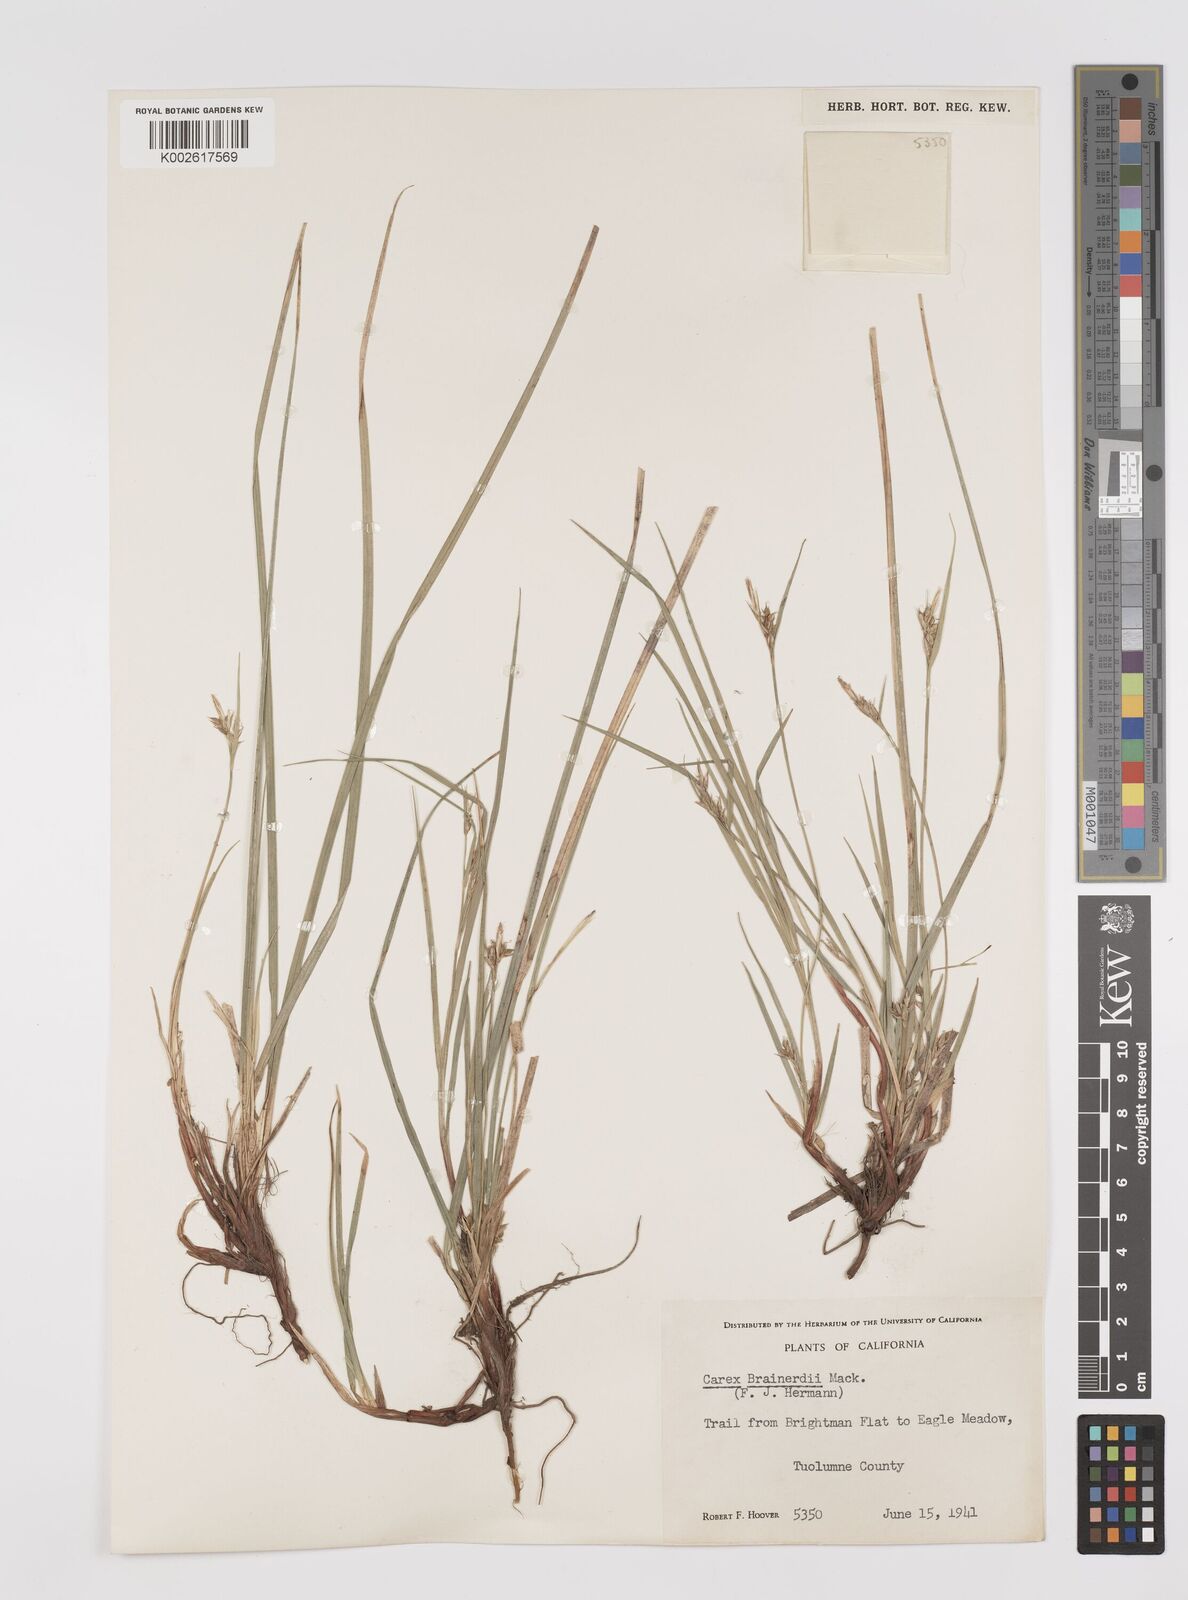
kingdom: Plantae
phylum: Tracheophyta
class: Liliopsida
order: Poales
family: Cyperaceae
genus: Carex
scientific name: Carex brainerdii
